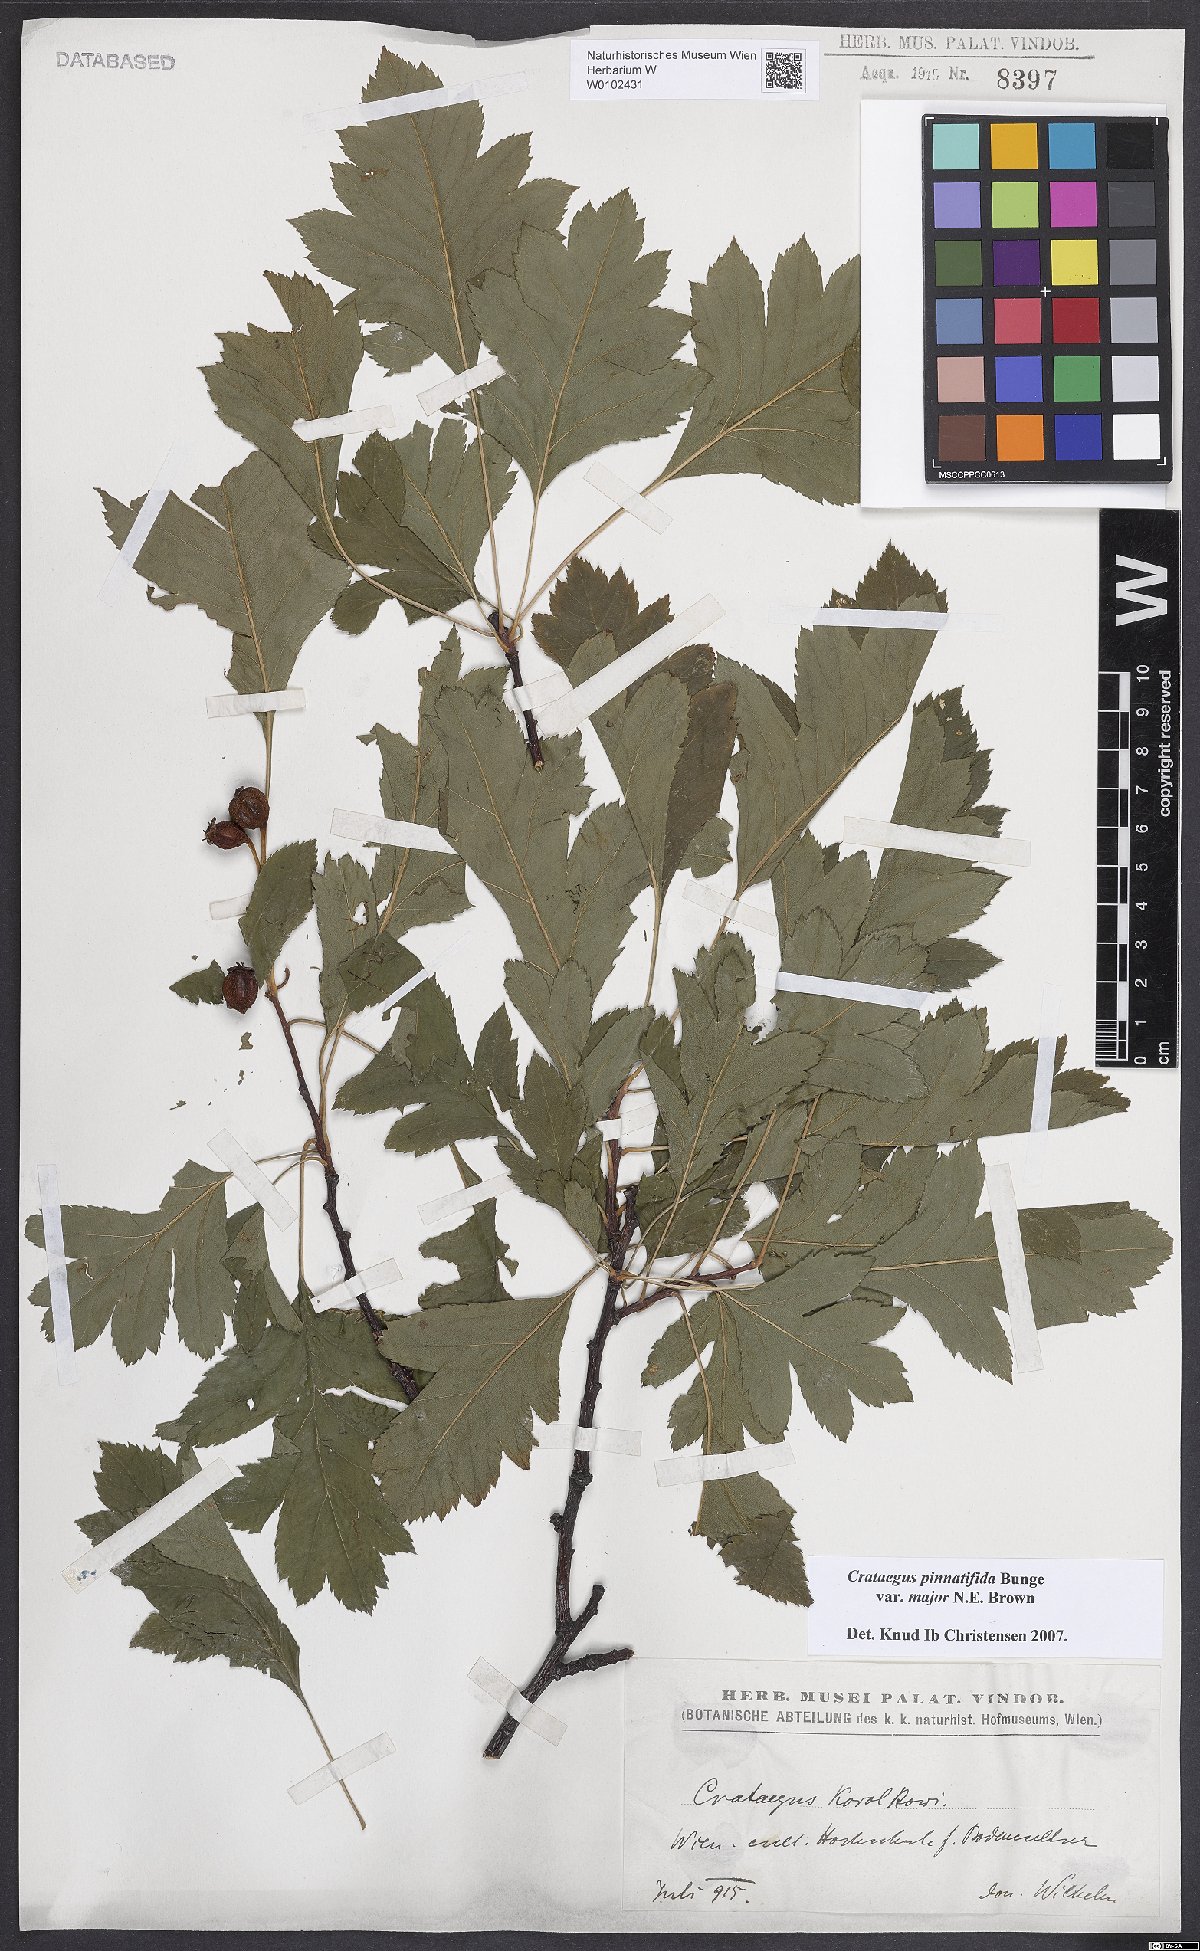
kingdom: Plantae
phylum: Tracheophyta
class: Magnoliopsida
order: Rosales
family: Rosaceae
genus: Crataegus
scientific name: Crataegus pinnatifida
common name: Chinese haw
